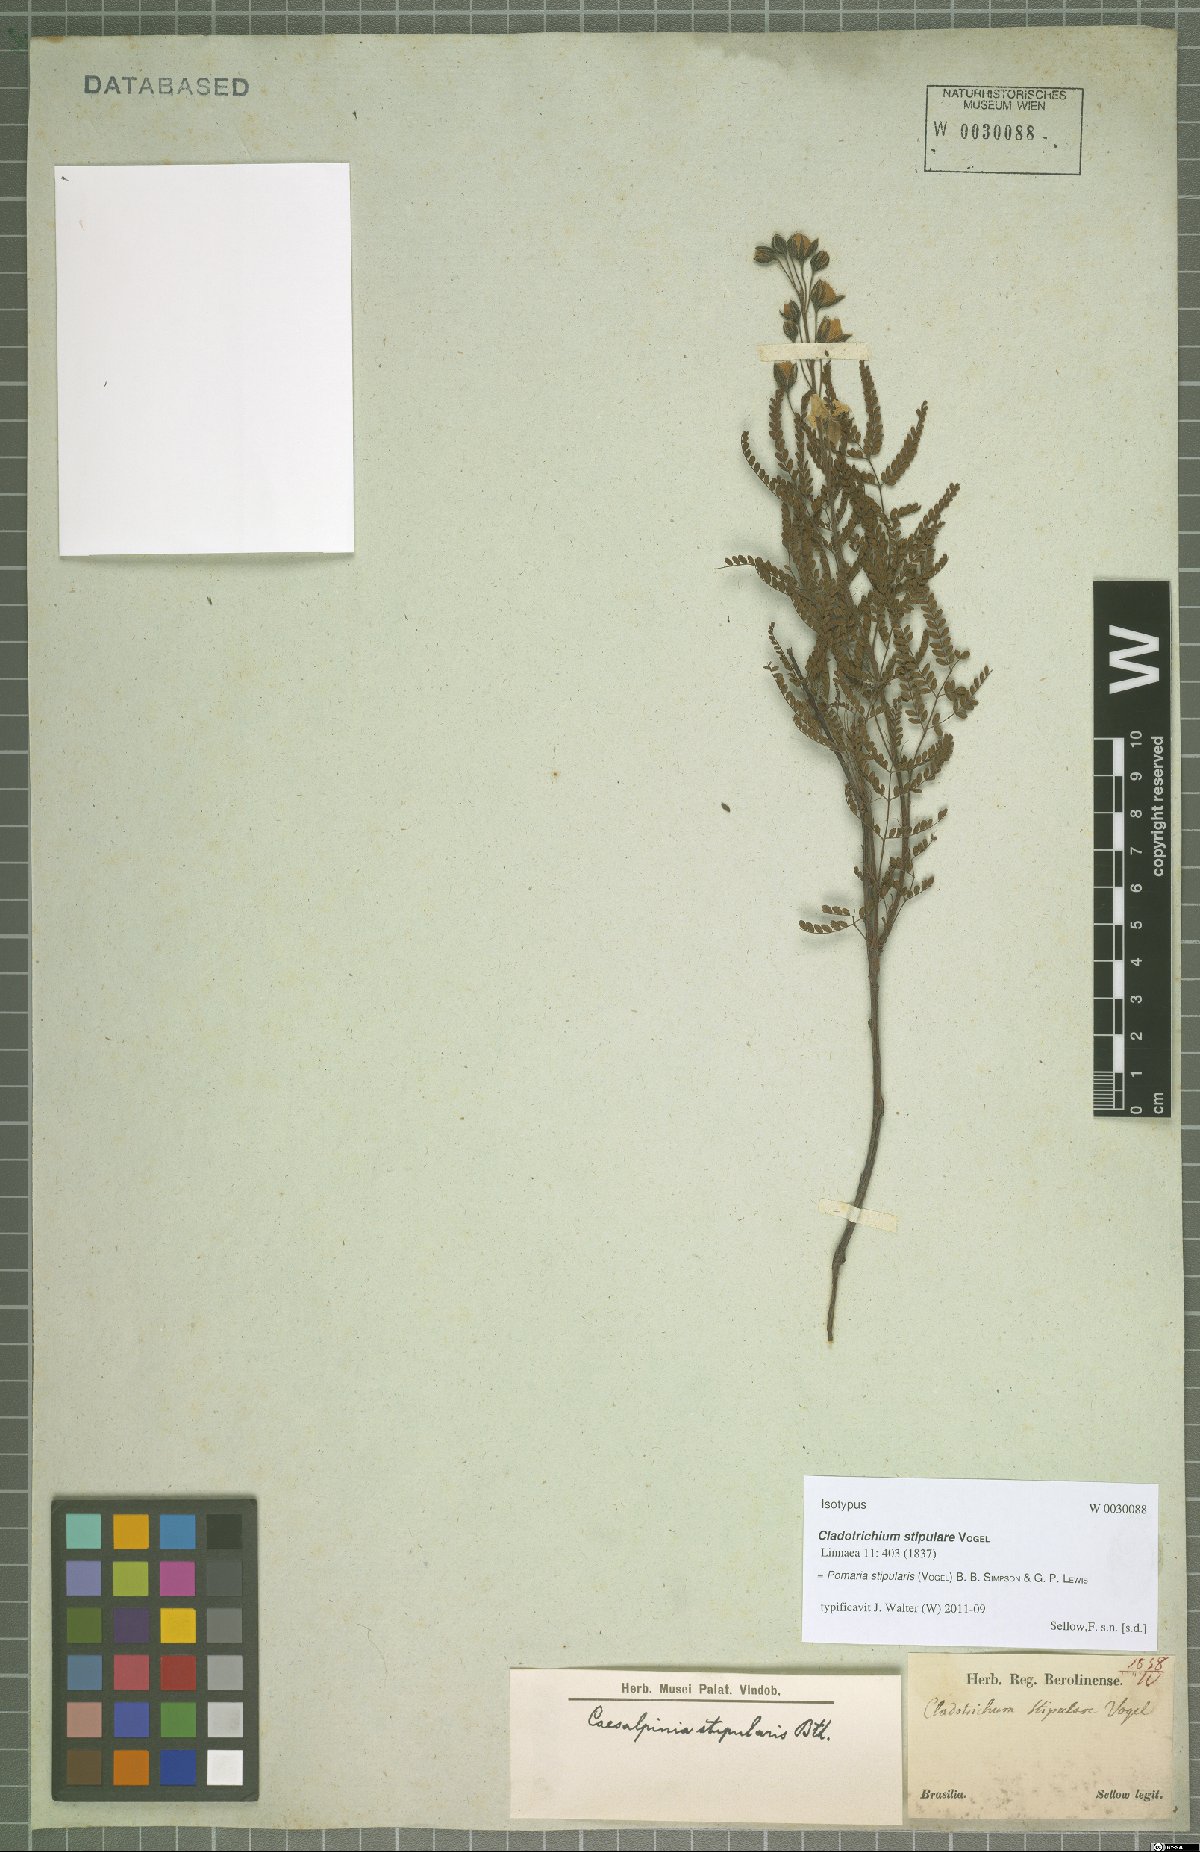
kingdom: Plantae
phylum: Tracheophyta
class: Magnoliopsida
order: Fabales
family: Fabaceae
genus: Pomaria
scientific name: Pomaria stipularis
